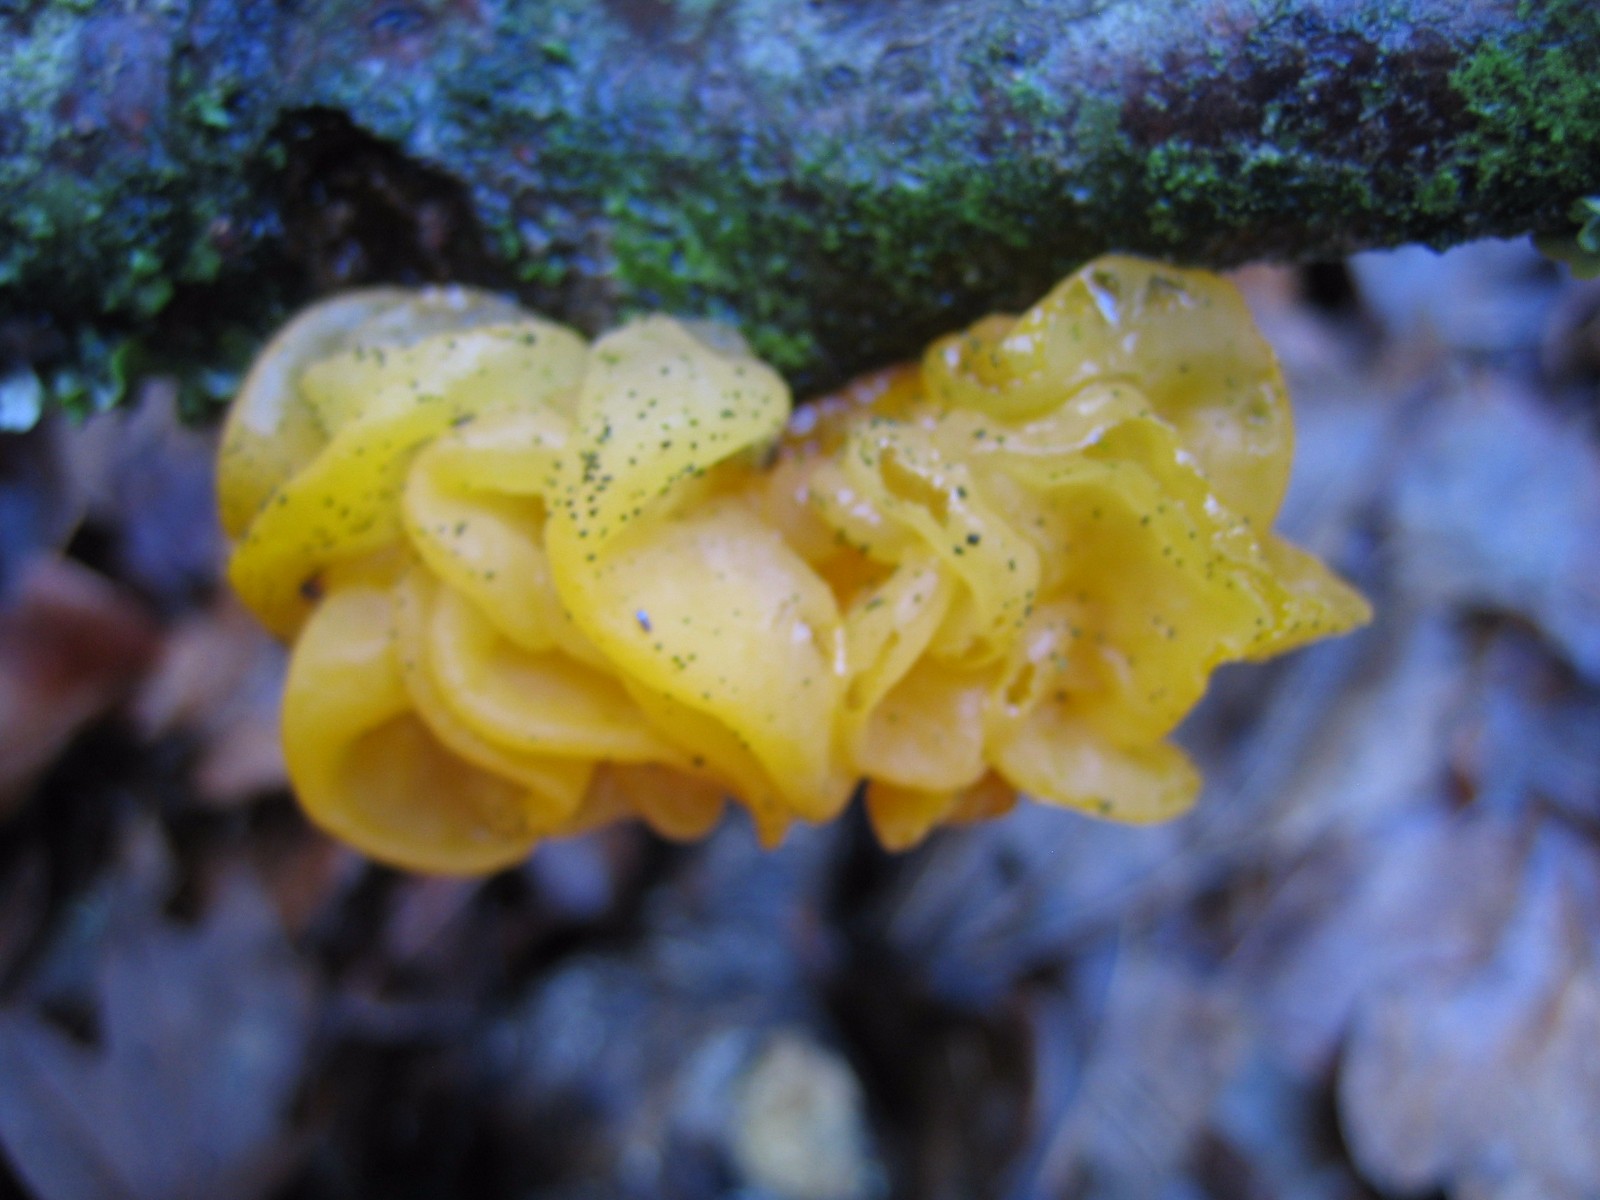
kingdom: Fungi
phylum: Basidiomycota
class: Tremellomycetes
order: Tremellales
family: Tremellaceae
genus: Tremella
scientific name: Tremella mesenterica
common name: gul bævresvamp
